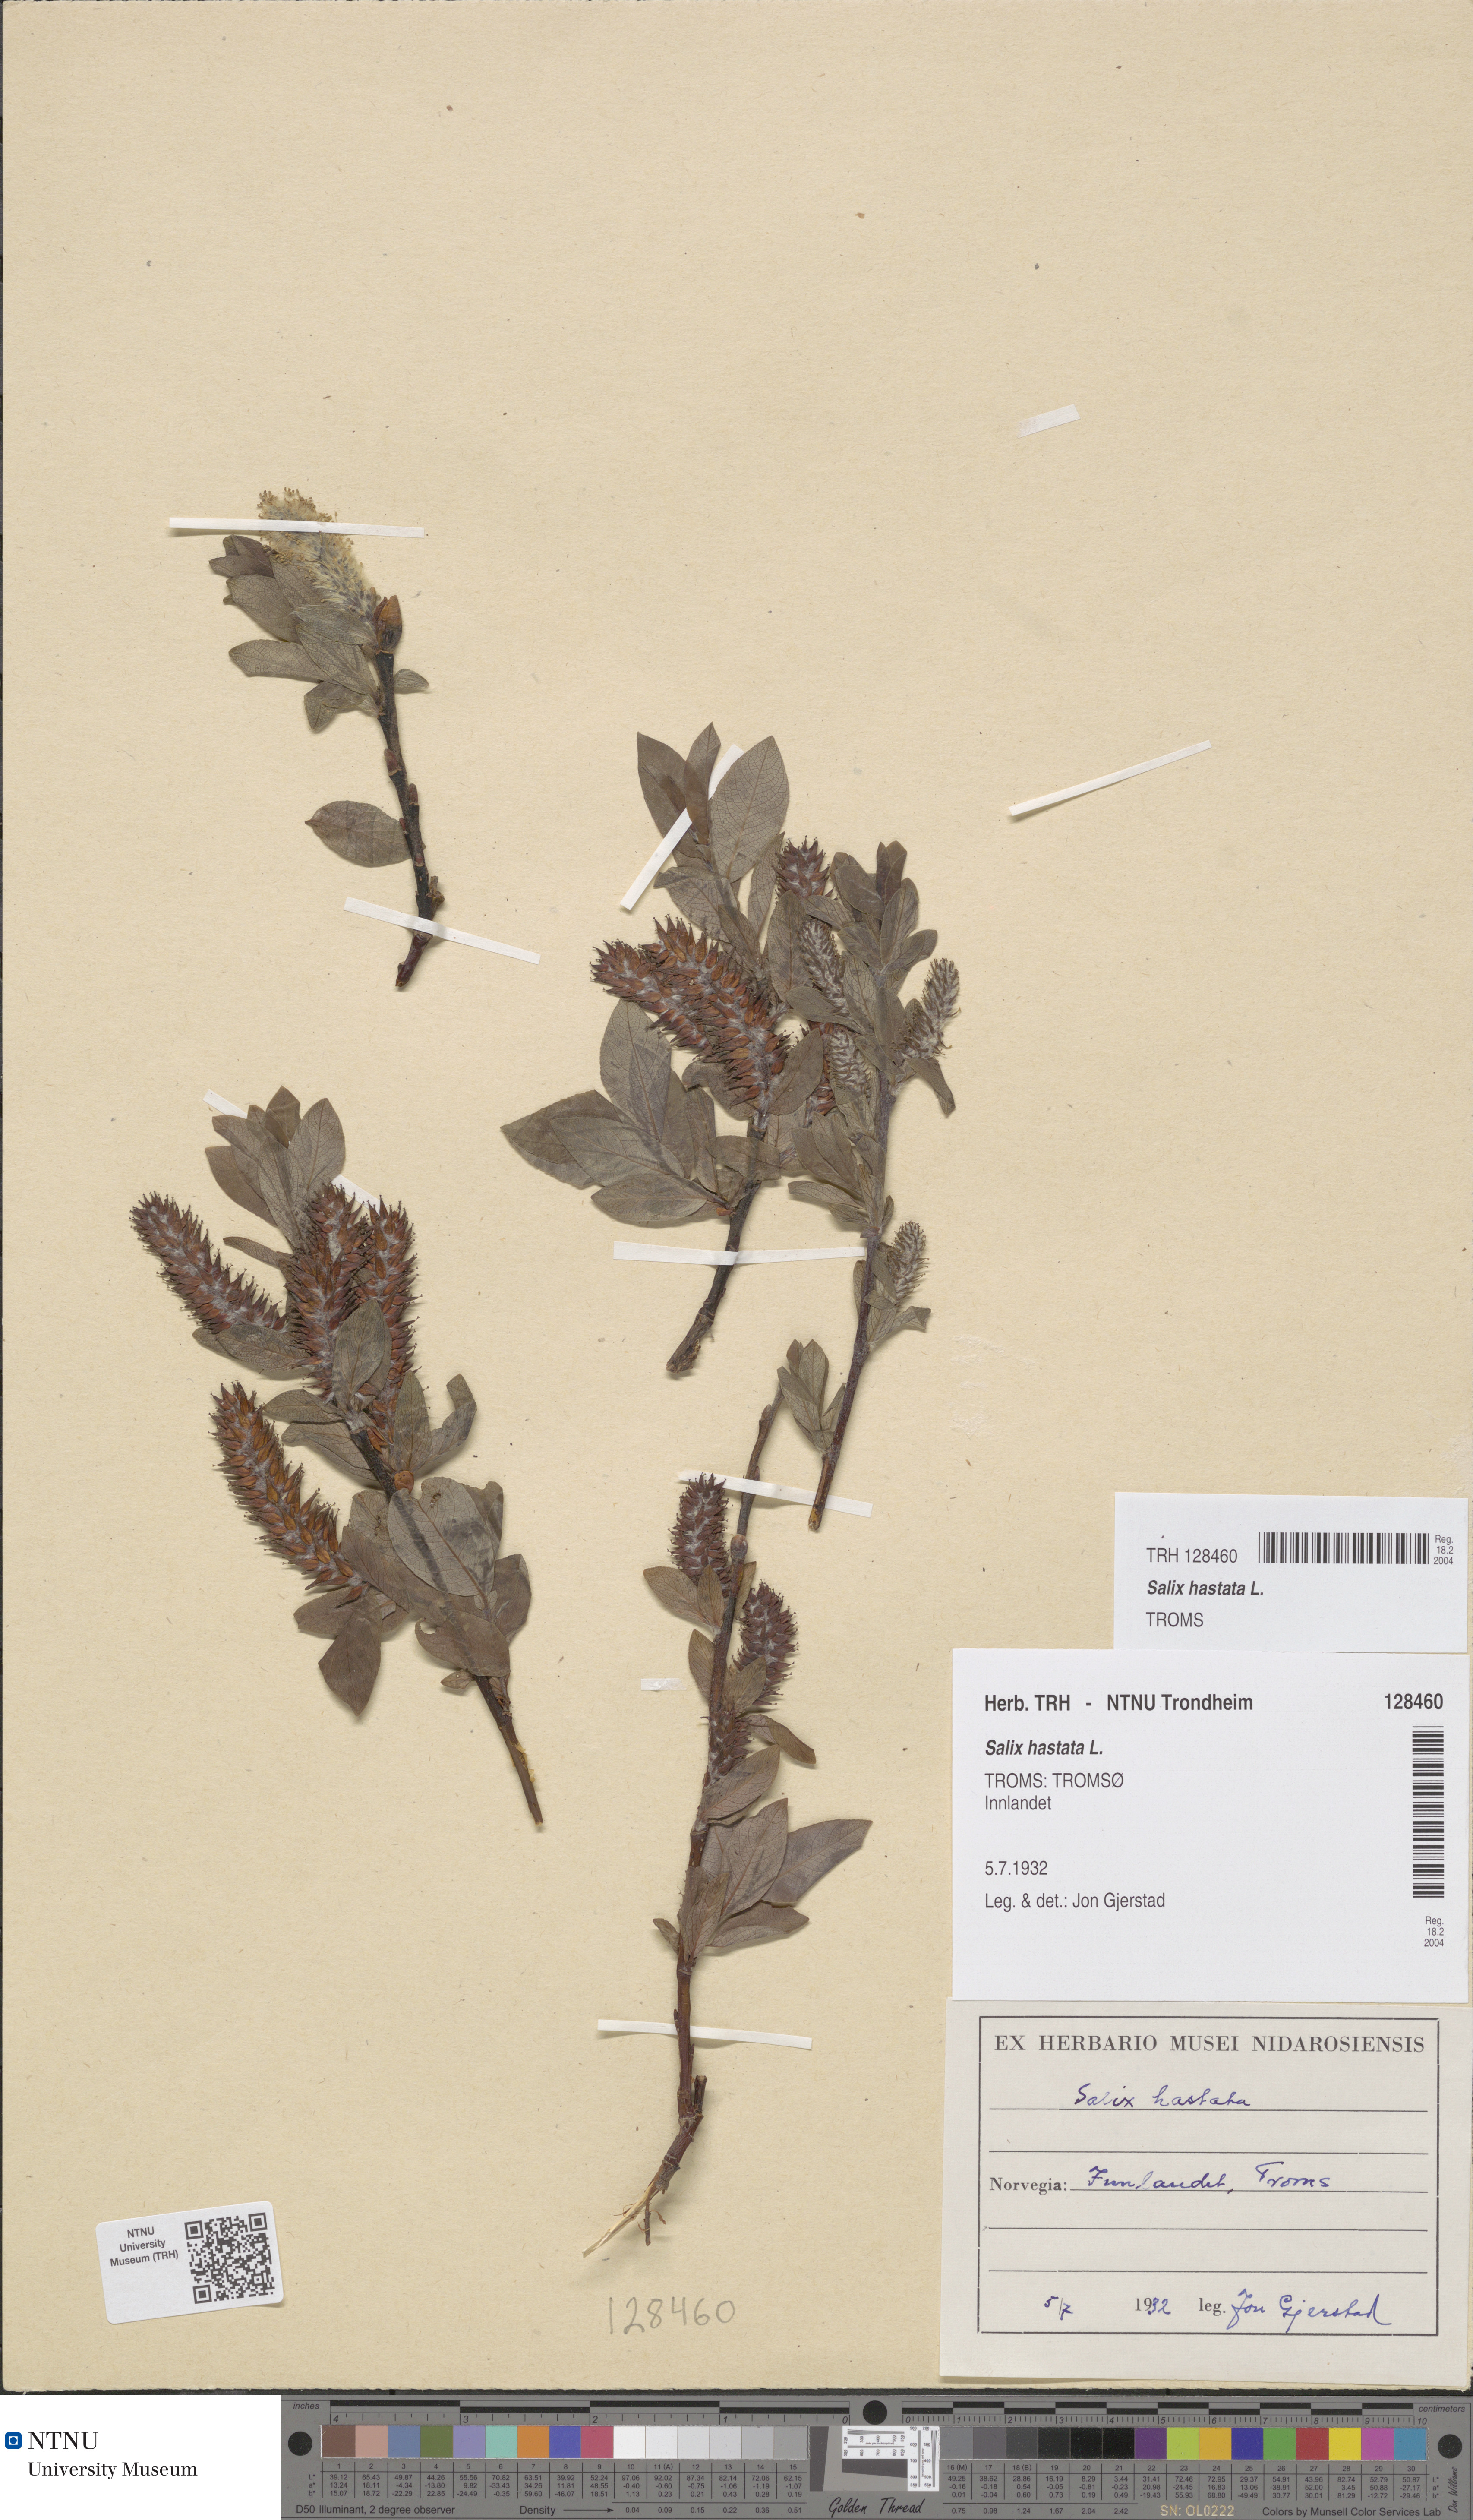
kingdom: Plantae
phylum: Tracheophyta
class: Magnoliopsida
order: Malpighiales
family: Salicaceae
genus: Salix
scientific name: Salix hastata
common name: Halberd willow
